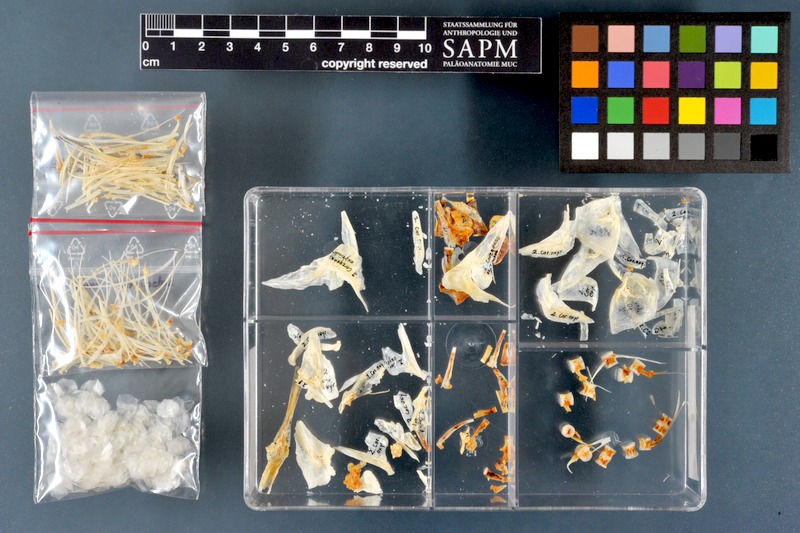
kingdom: Animalia
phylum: Chordata
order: Salmoniformes
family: Salmonidae
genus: Coregonus
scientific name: Coregonus oxyrinchus
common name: Houting
